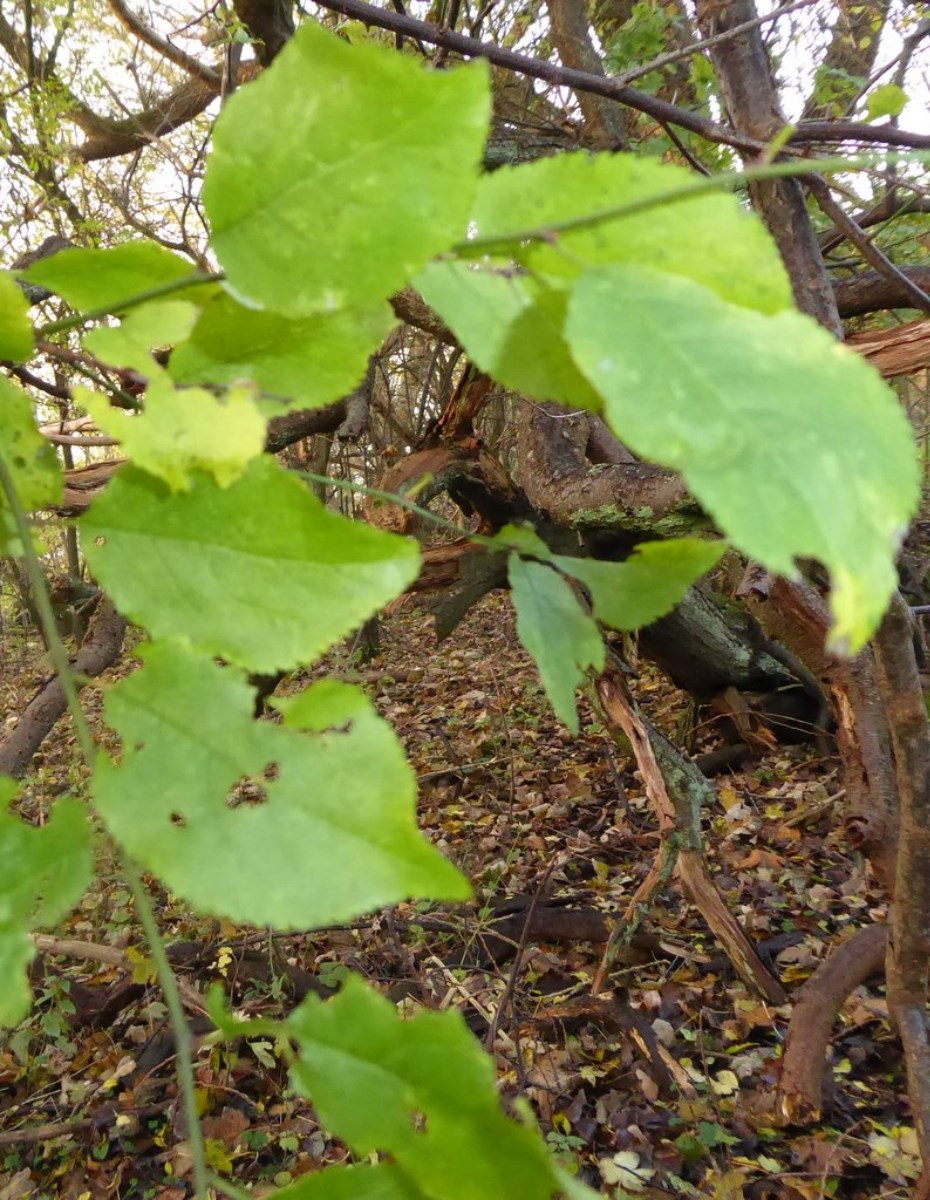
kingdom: Fungi
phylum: Basidiomycota
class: Agaricomycetes
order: Hymenochaetales
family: Hymenochaetaceae
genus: Phellinus
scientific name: Phellinus pomaceus
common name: blomme-ildporesvamp
